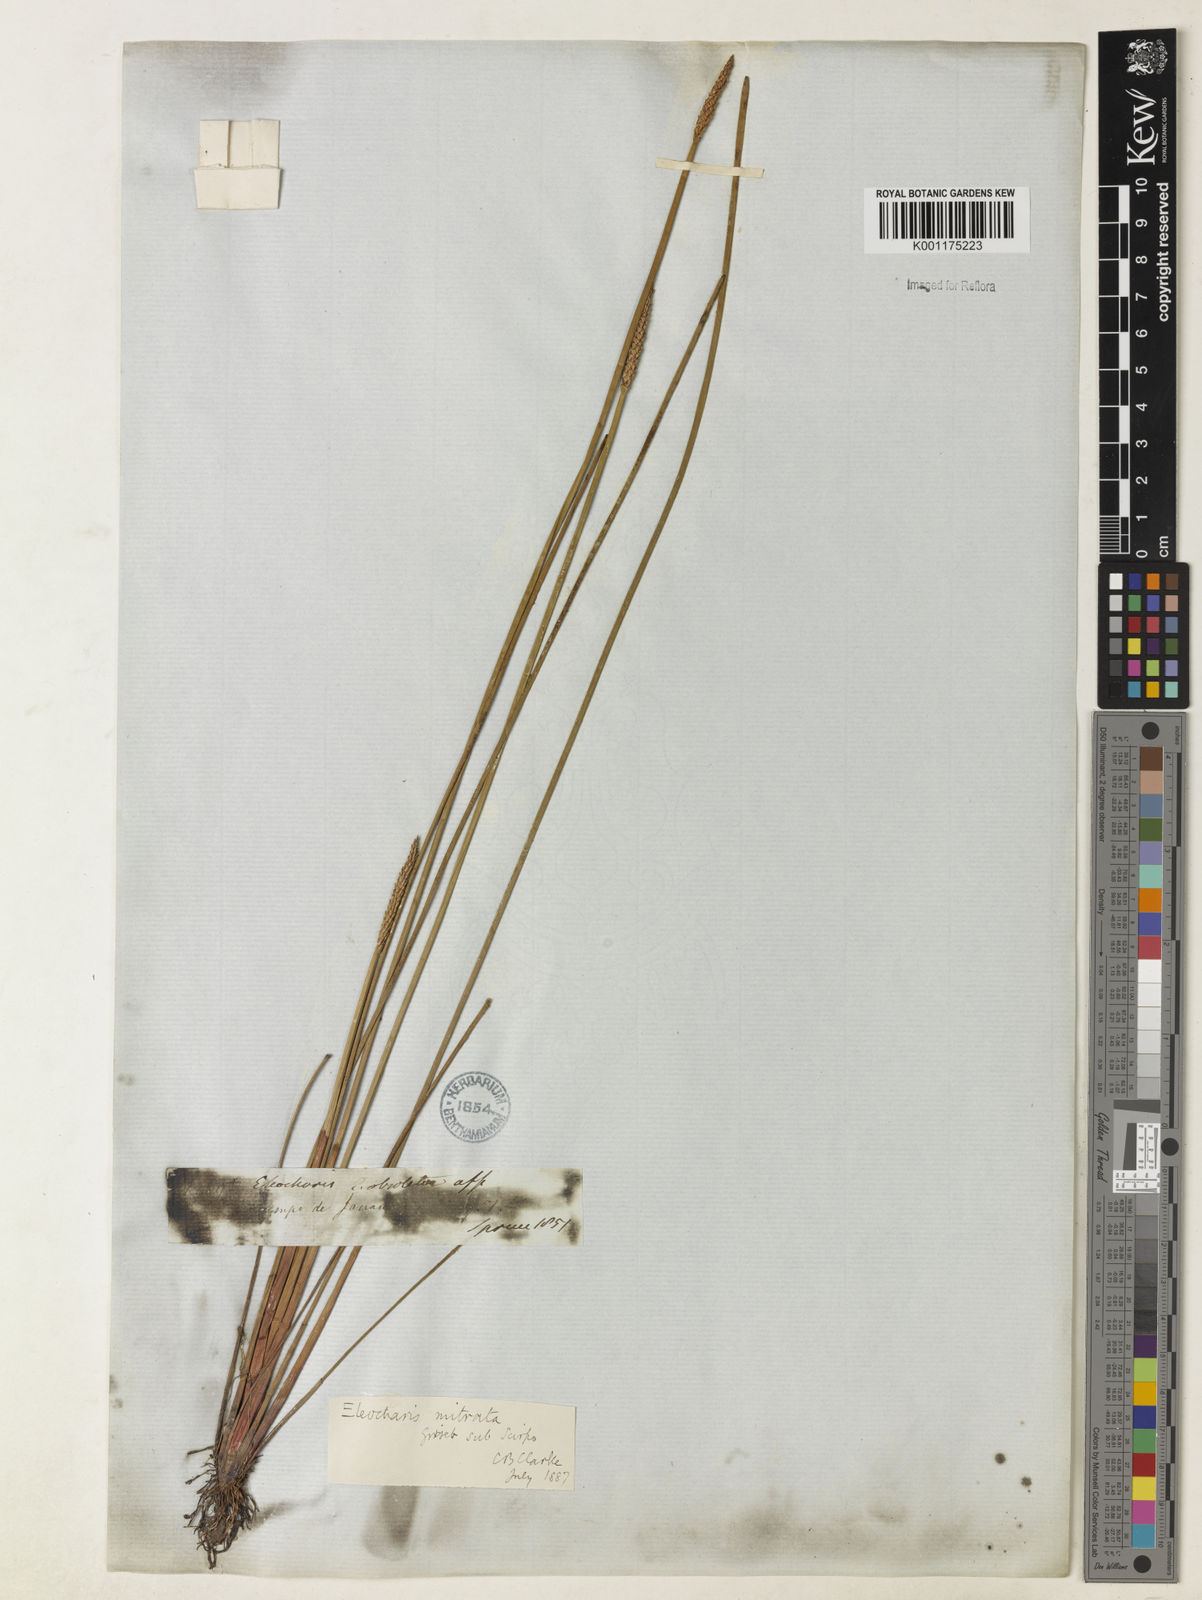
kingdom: Plantae
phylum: Tracheophyta
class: Liliopsida
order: Poales
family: Cyperaceae
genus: Eleocharis
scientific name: Eleocharis tiarata
